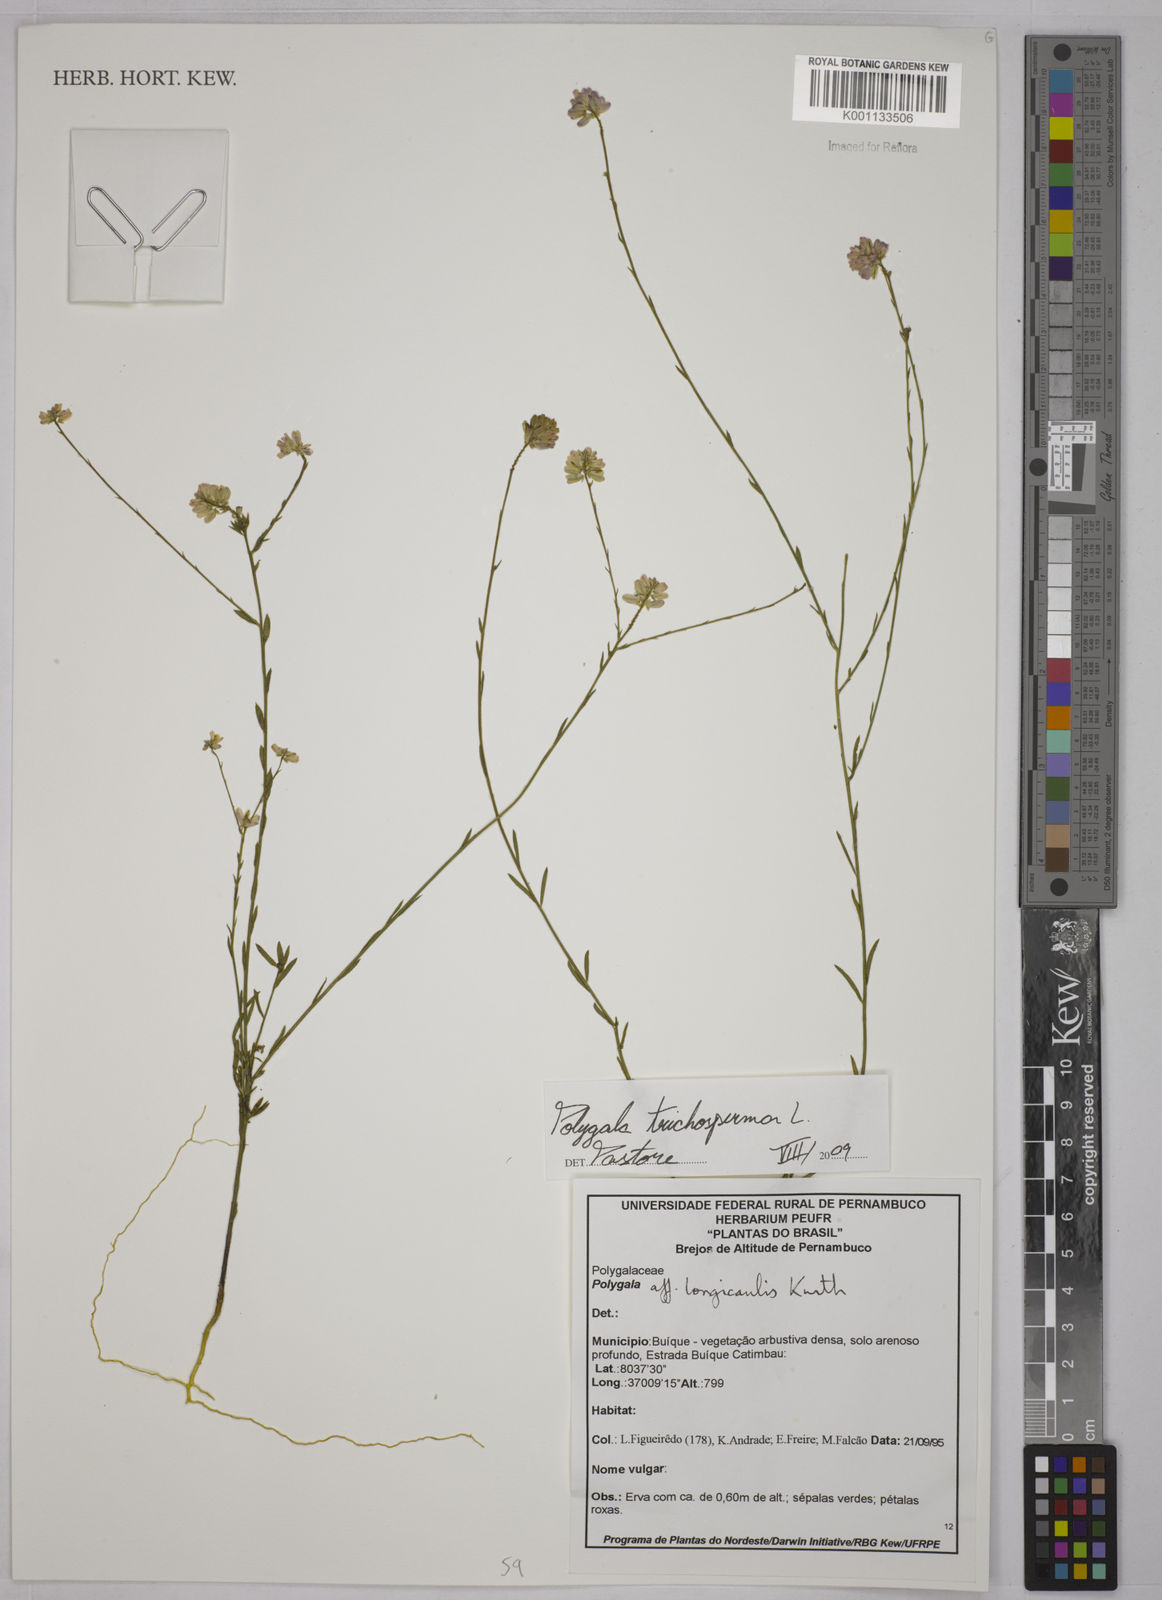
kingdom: Plantae
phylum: Tracheophyta
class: Magnoliopsida
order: Fabales
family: Polygalaceae
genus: Polygala
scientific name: Polygala trichosperma
